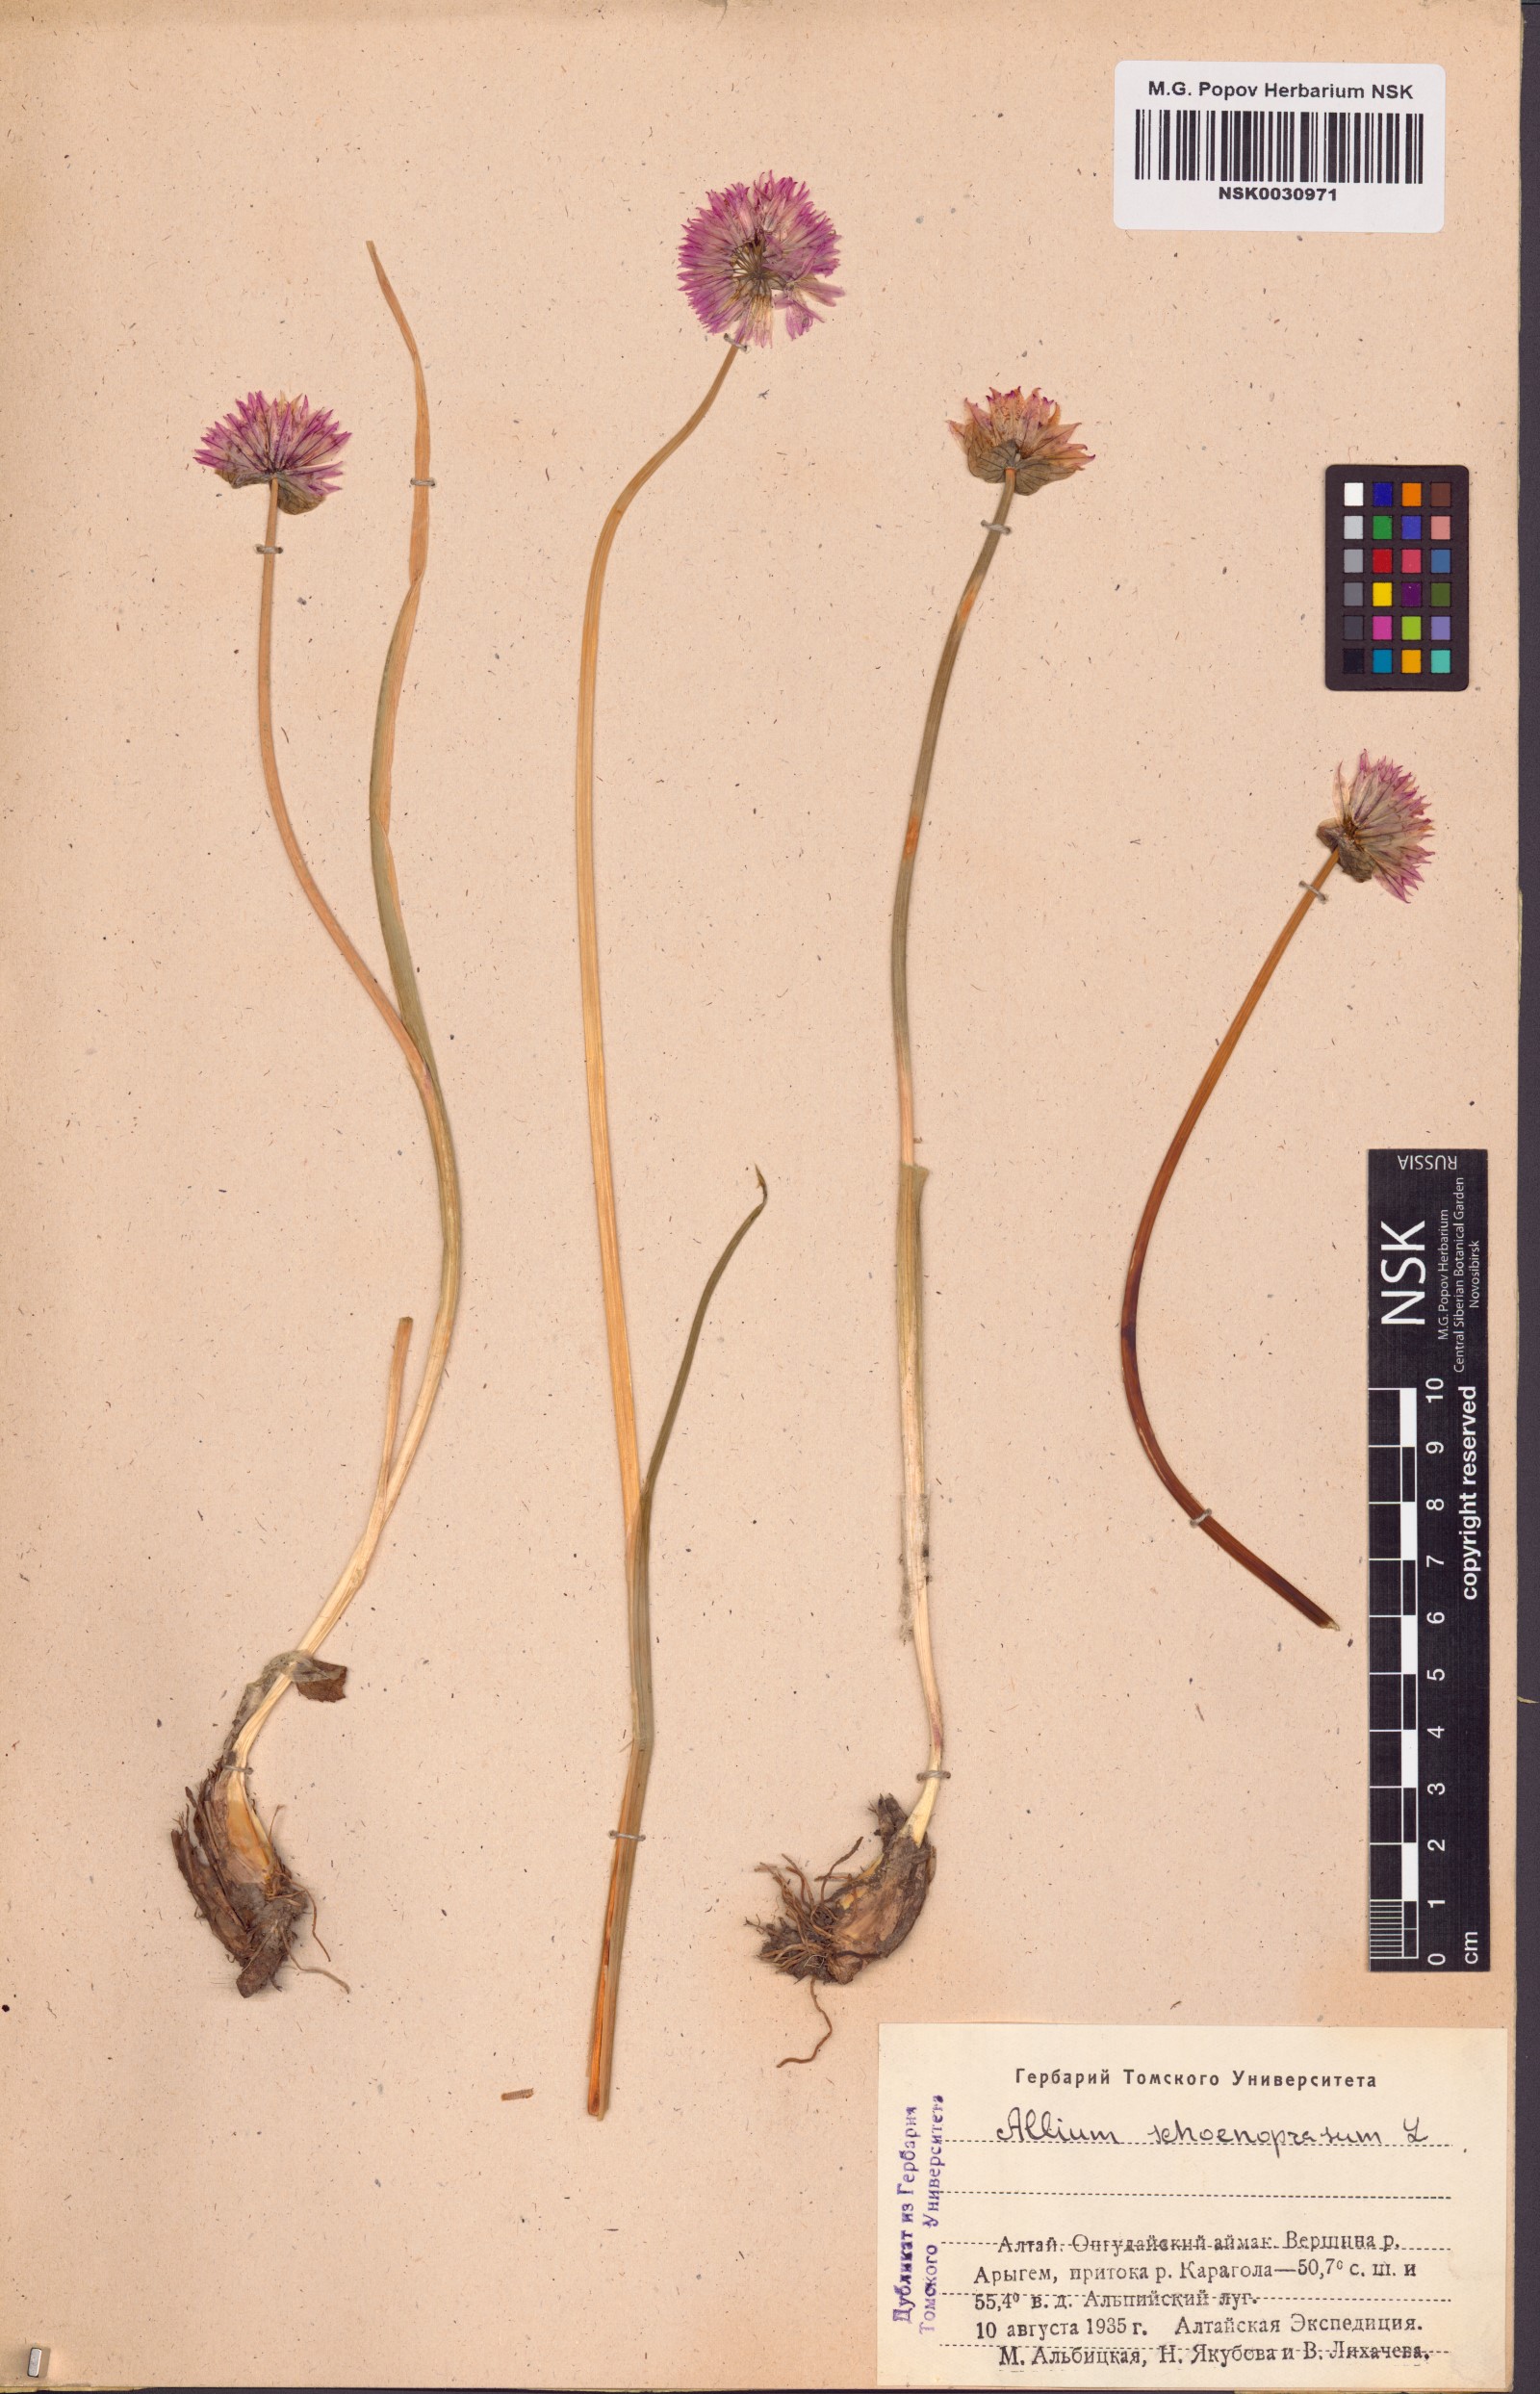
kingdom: Plantae
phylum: Tracheophyta
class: Liliopsida
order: Asparagales
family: Amaryllidaceae
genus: Allium
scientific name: Allium schoenoprasum
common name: Chives
